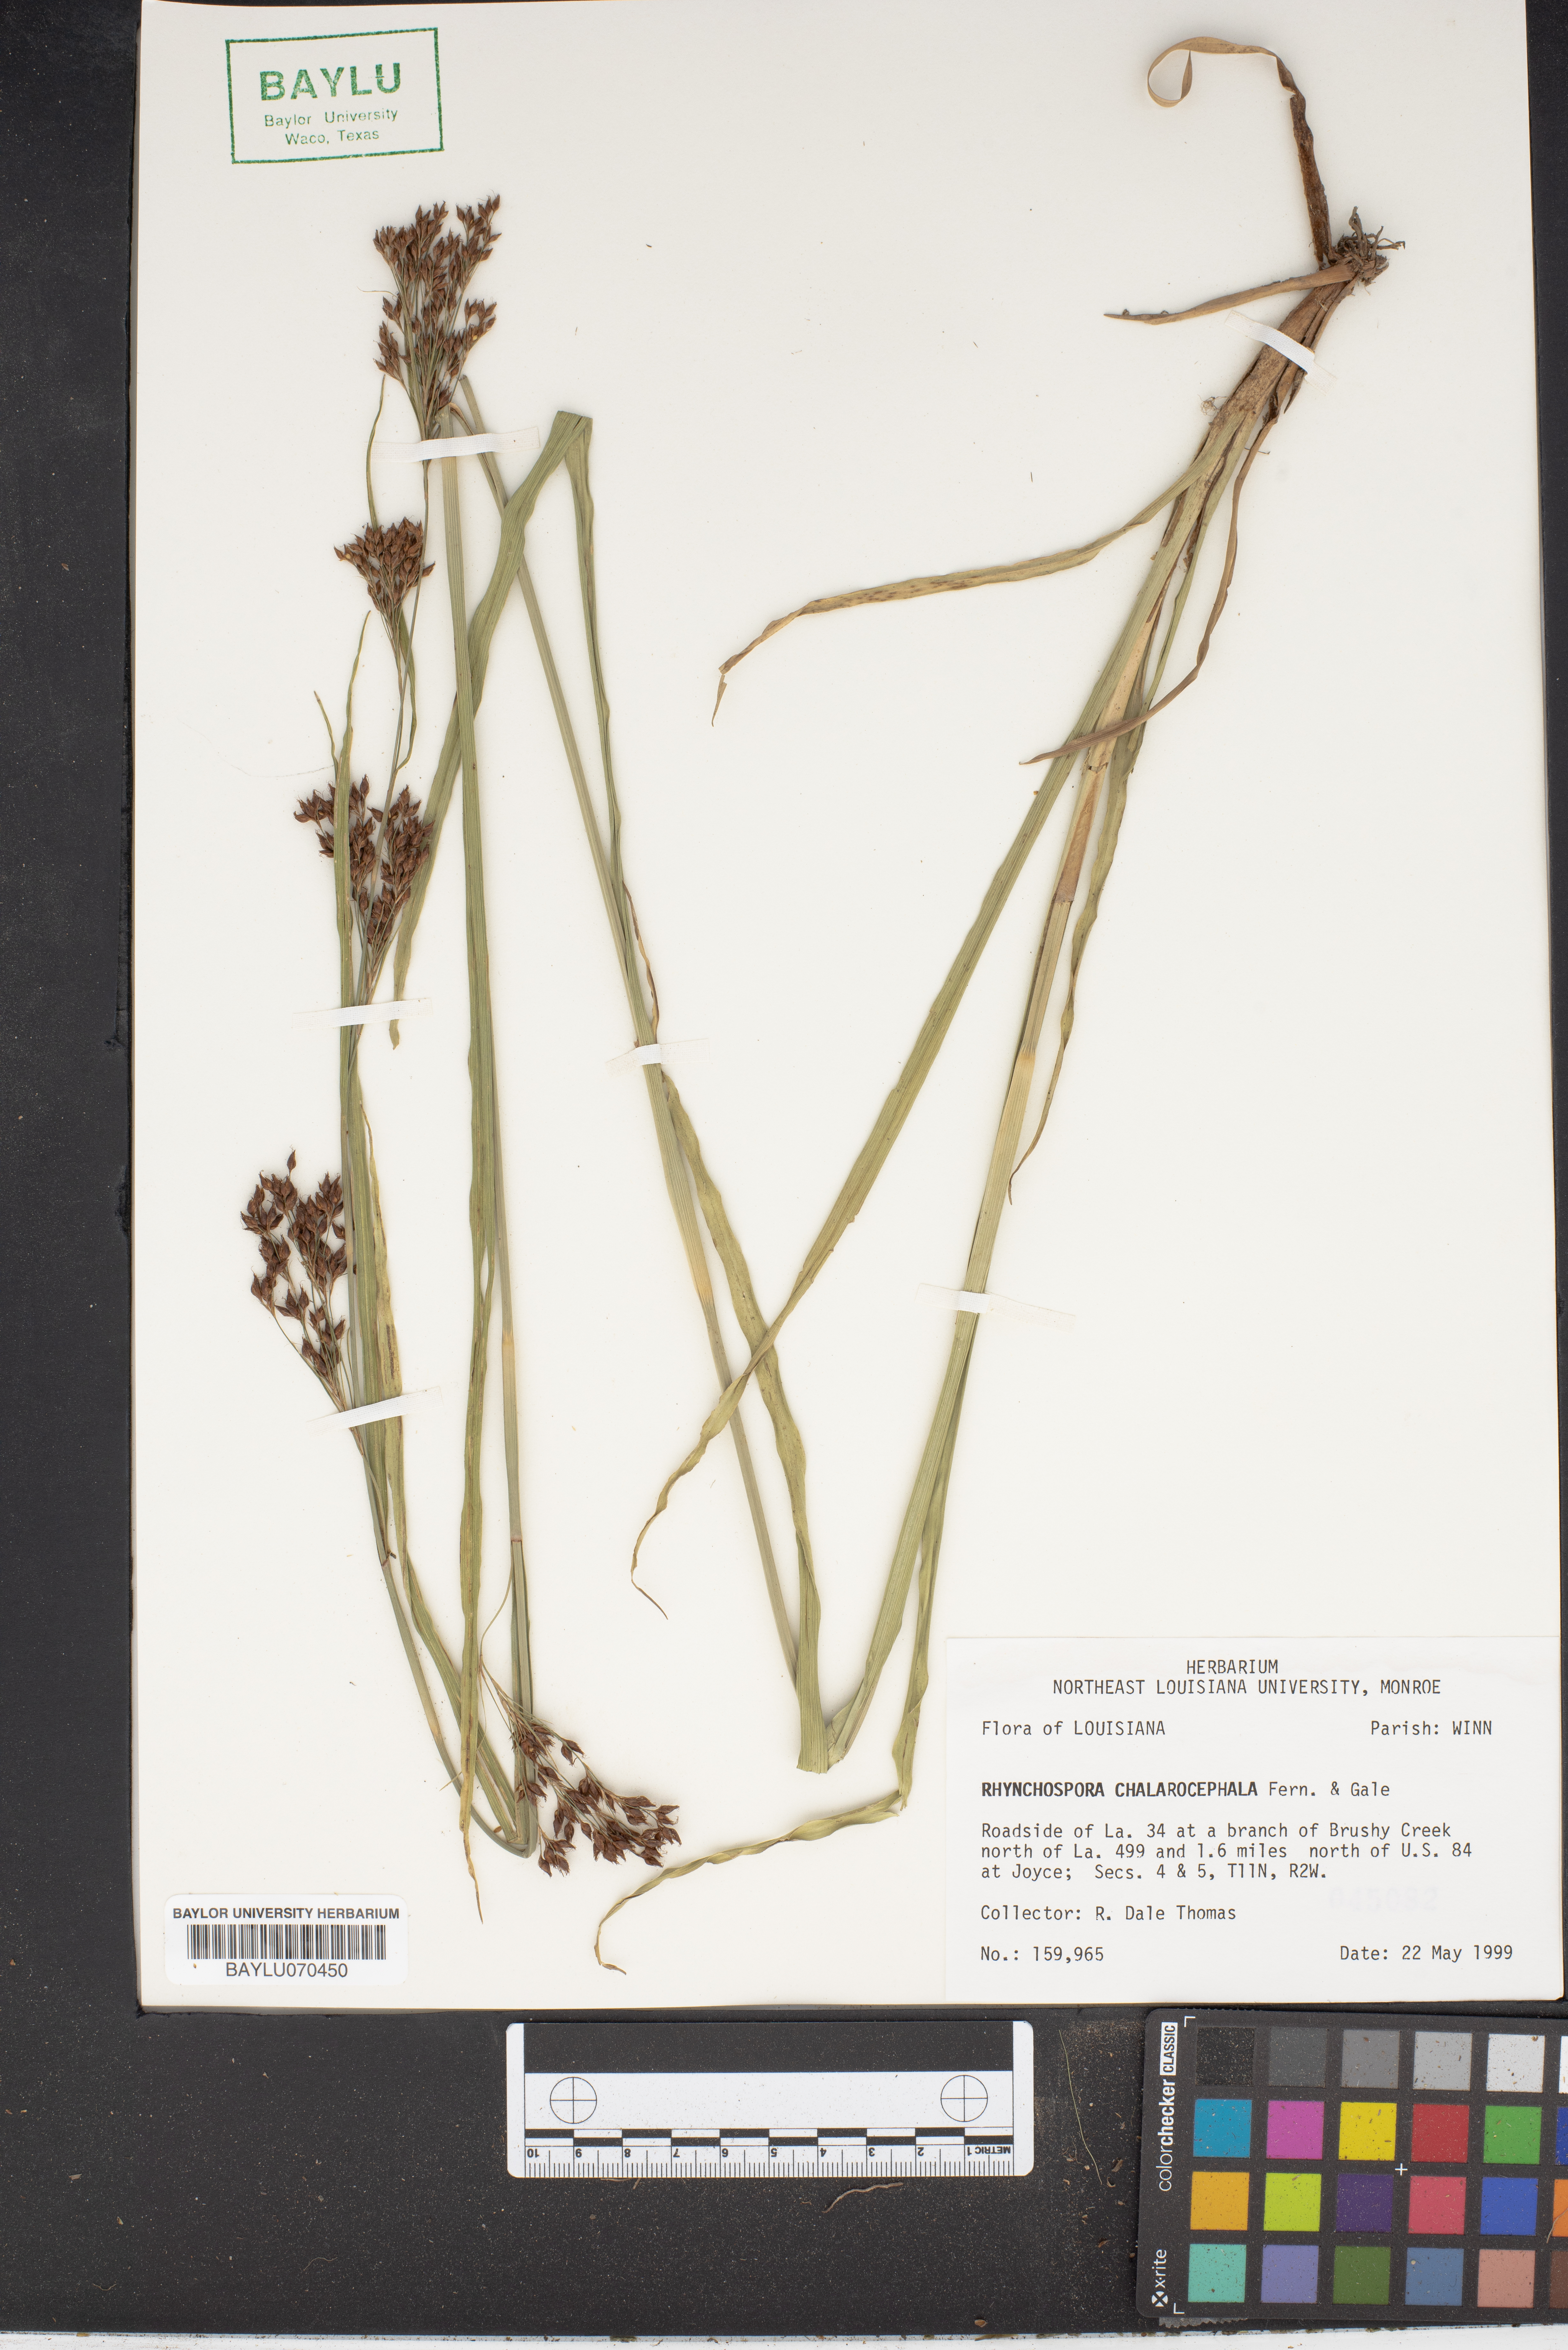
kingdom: Plantae
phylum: Tracheophyta
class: Liliopsida
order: Poales
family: Cyperaceae
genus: Rhynchospora
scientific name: Rhynchospora chalarocephala
